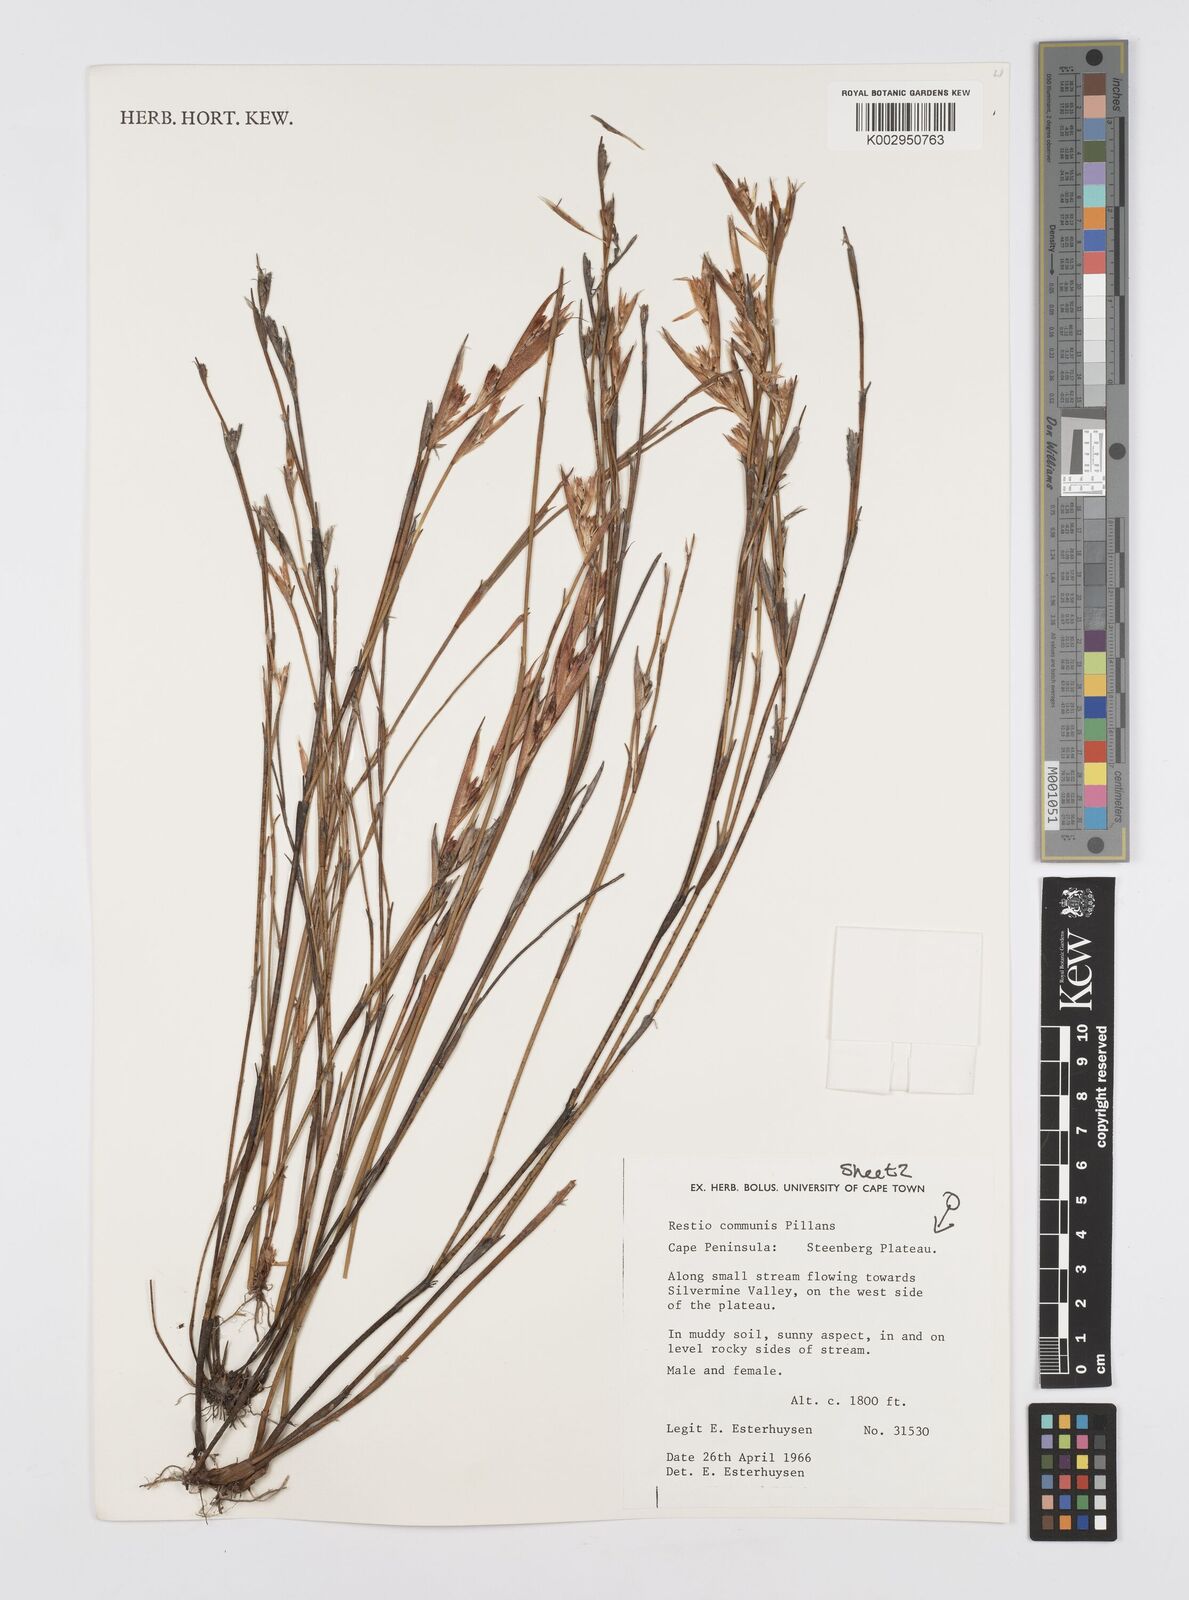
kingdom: Plantae
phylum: Tracheophyta
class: Liliopsida
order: Poales
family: Restionaceae
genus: Restio
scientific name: Restio communis
